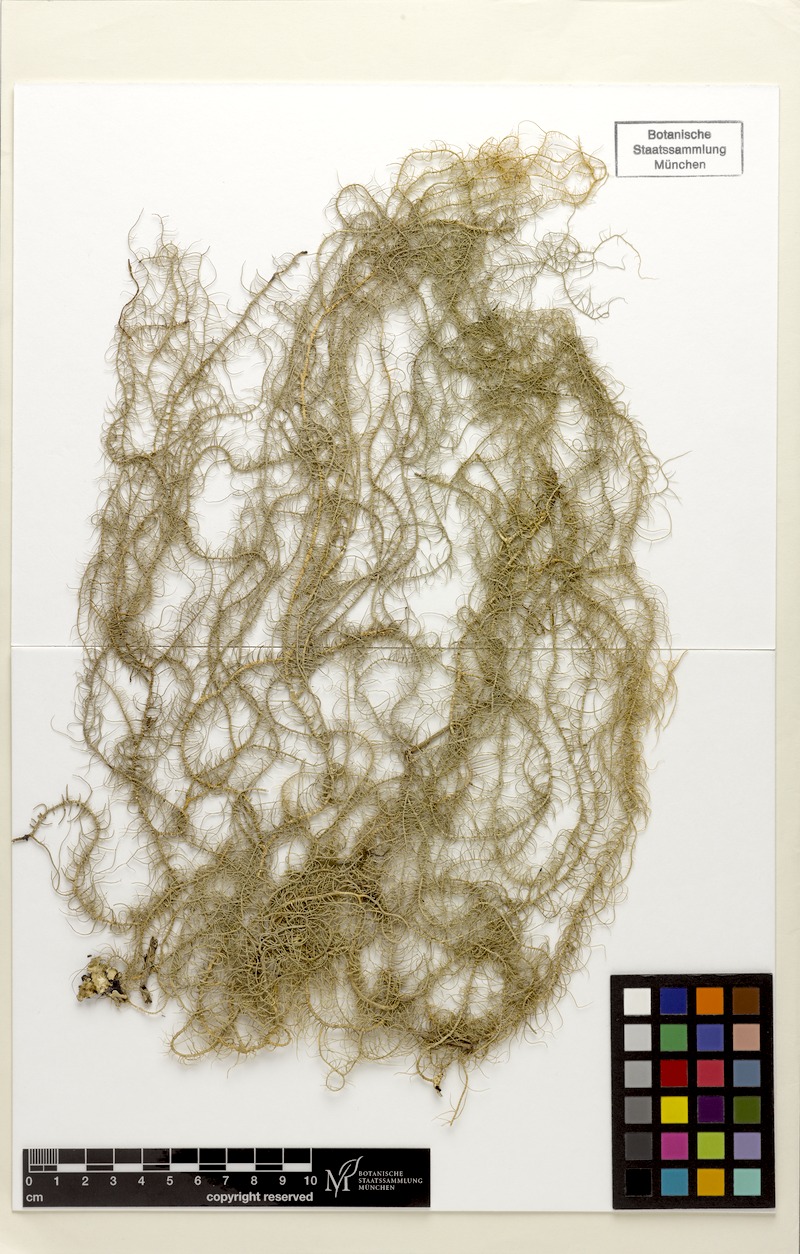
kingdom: Fungi
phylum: Ascomycota
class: Lecanoromycetes
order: Lecanorales
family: Parmeliaceae
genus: Usnea
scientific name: Usnea
